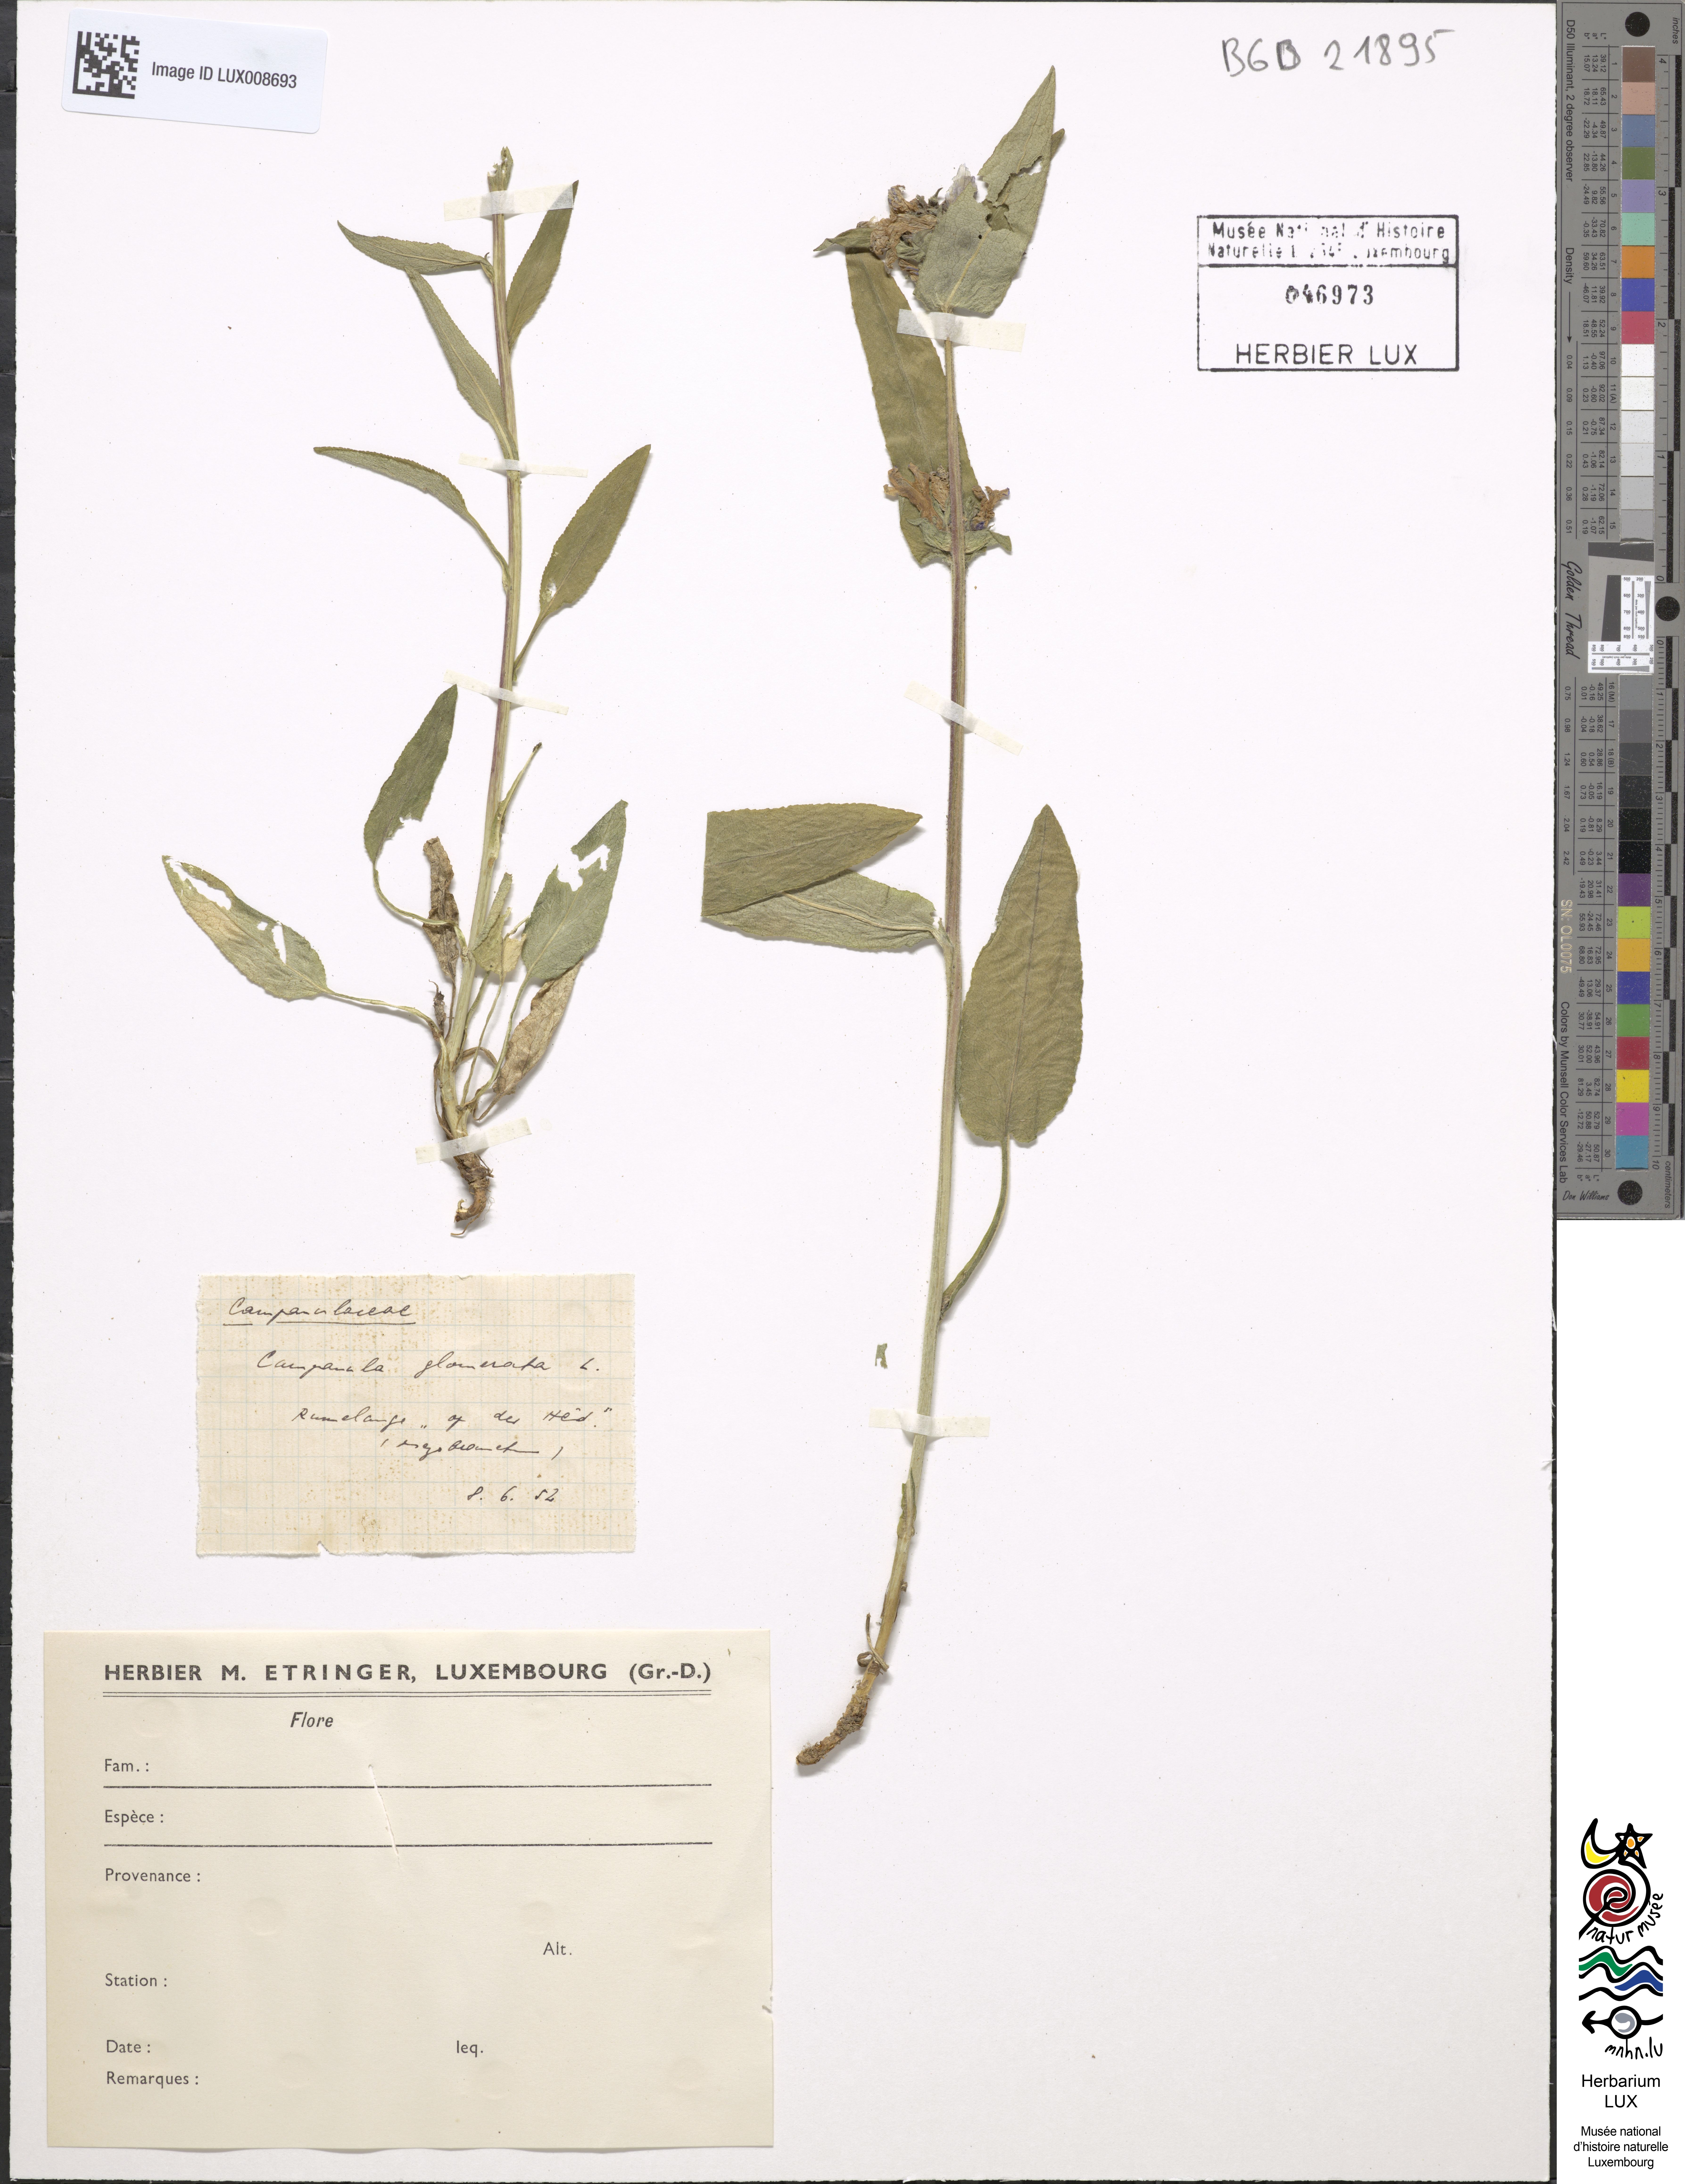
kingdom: Plantae
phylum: Tracheophyta
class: Magnoliopsida
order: Asterales
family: Campanulaceae
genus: Campanula
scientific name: Campanula glomerata
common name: Clustered bellflower
